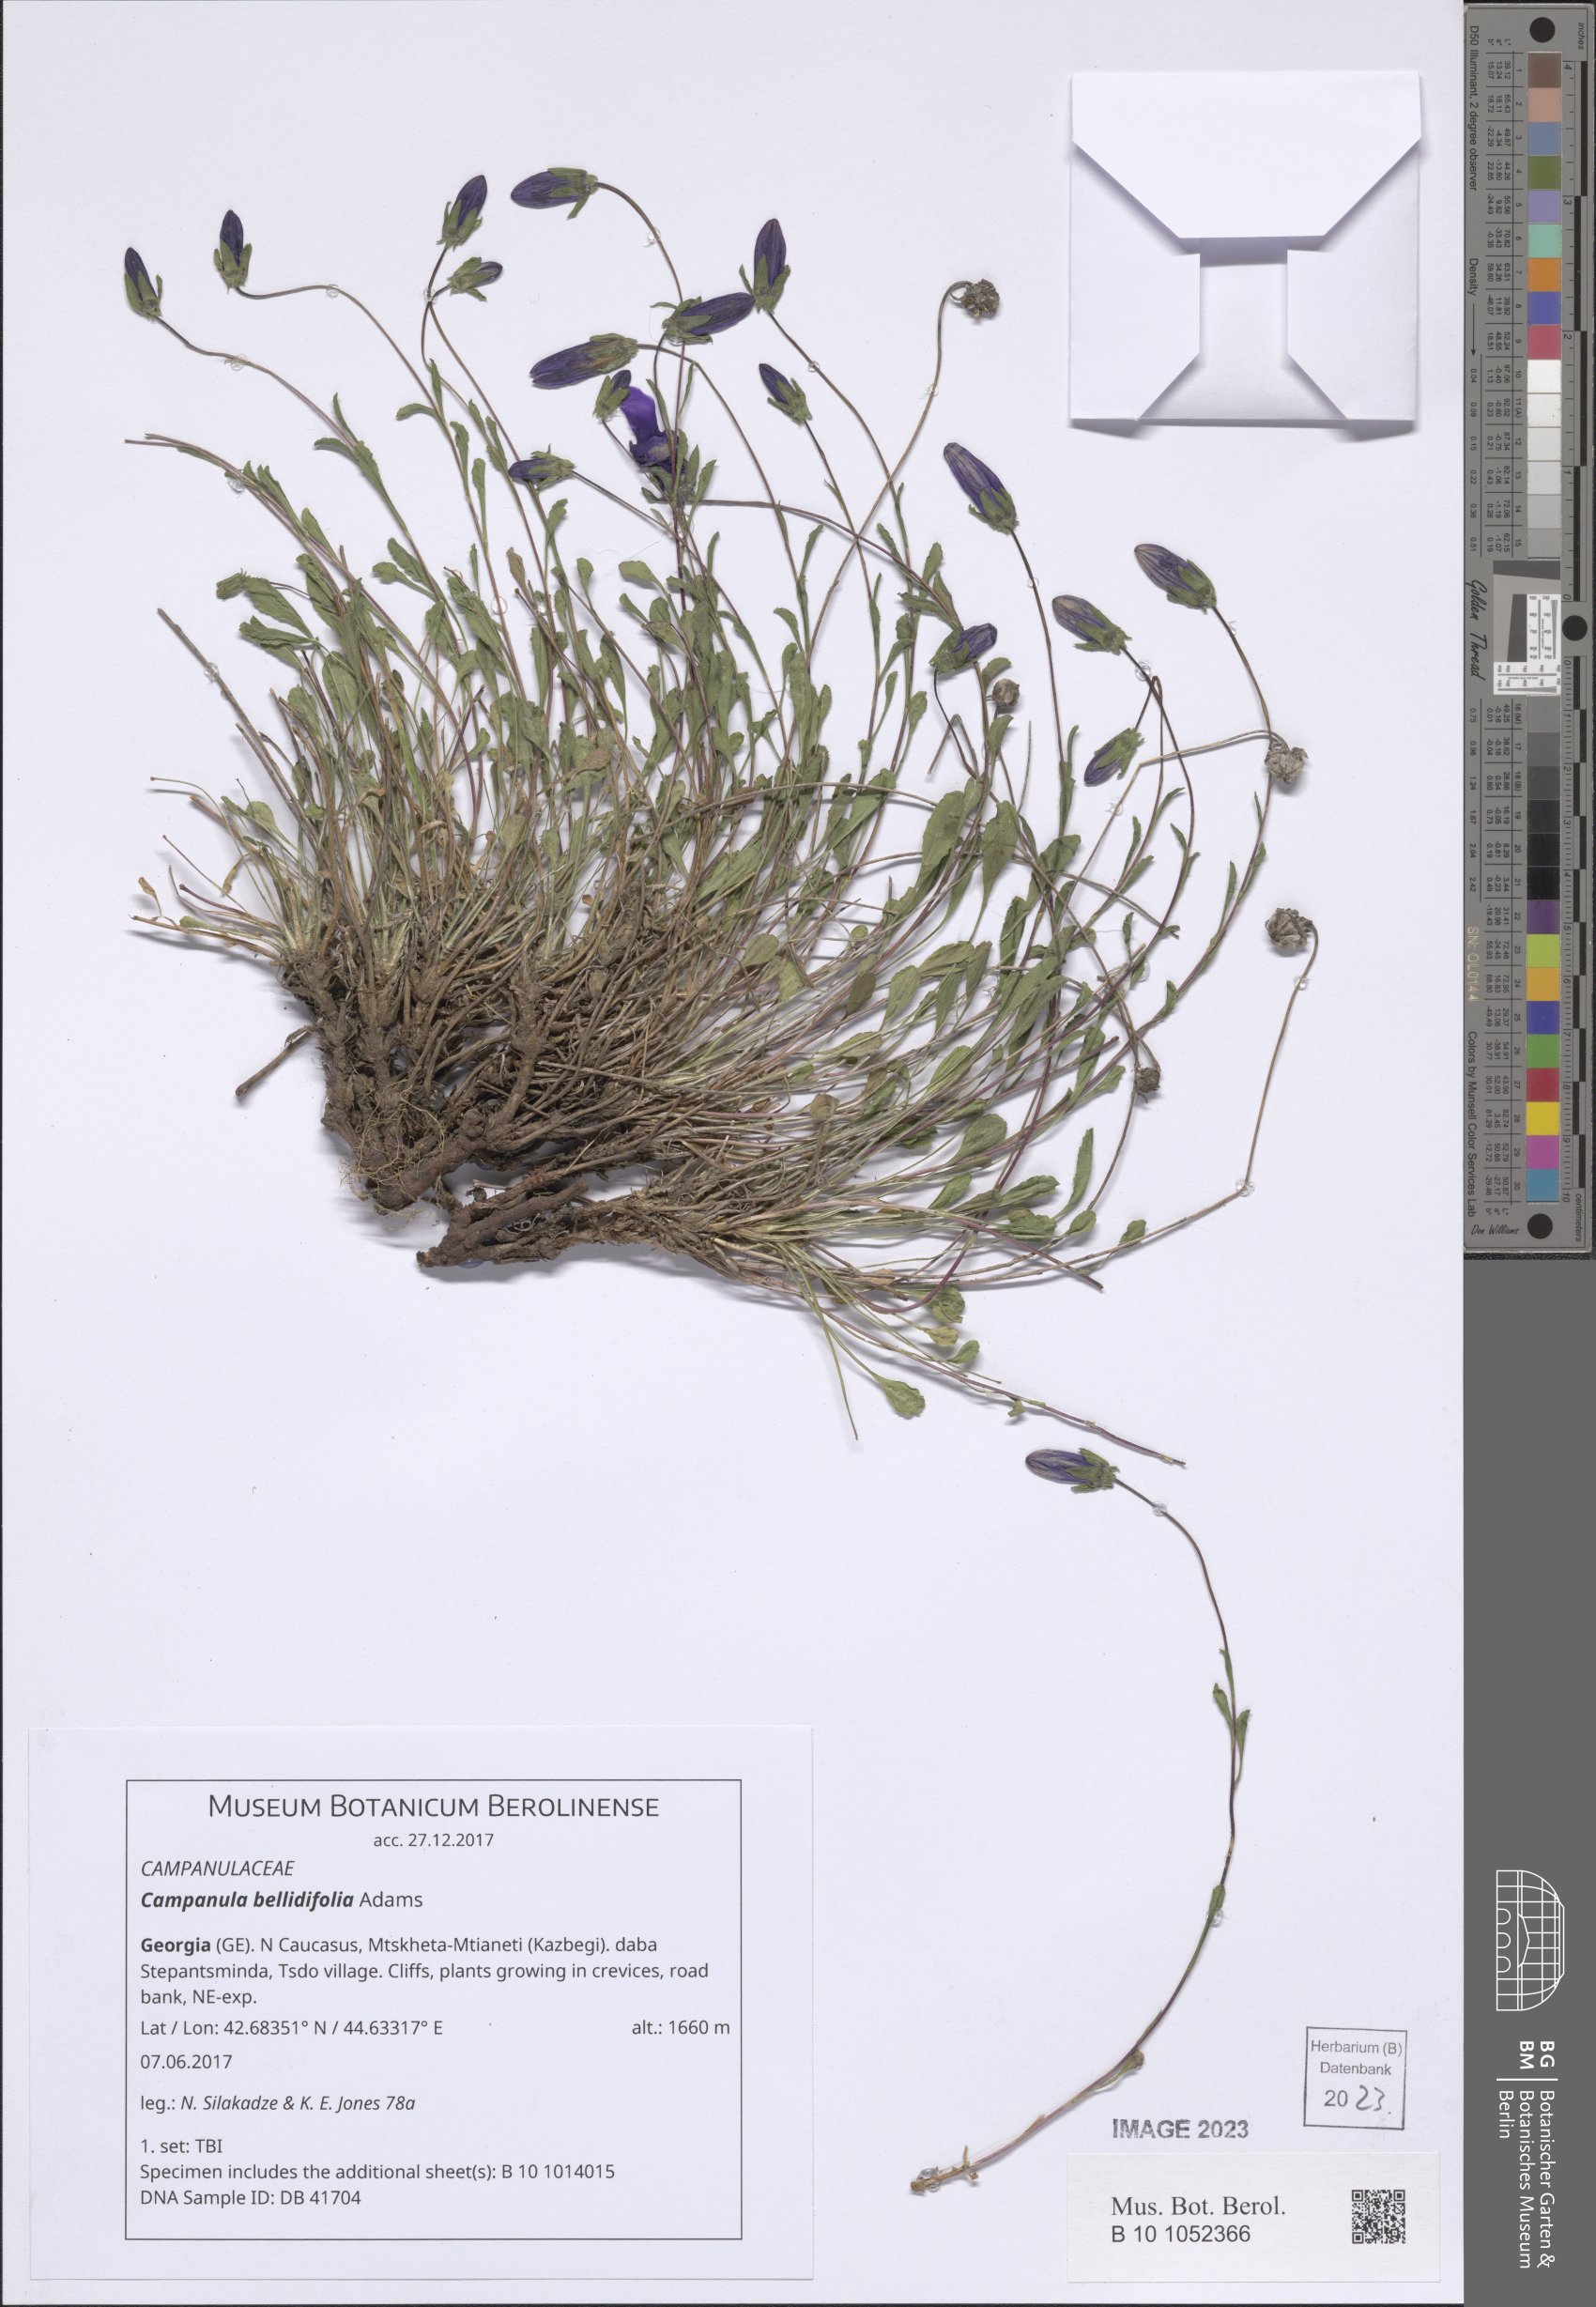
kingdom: Plantae
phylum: Tracheophyta
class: Magnoliopsida
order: Asterales
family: Campanulaceae
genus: Campanula
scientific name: Campanula bellidifolia
